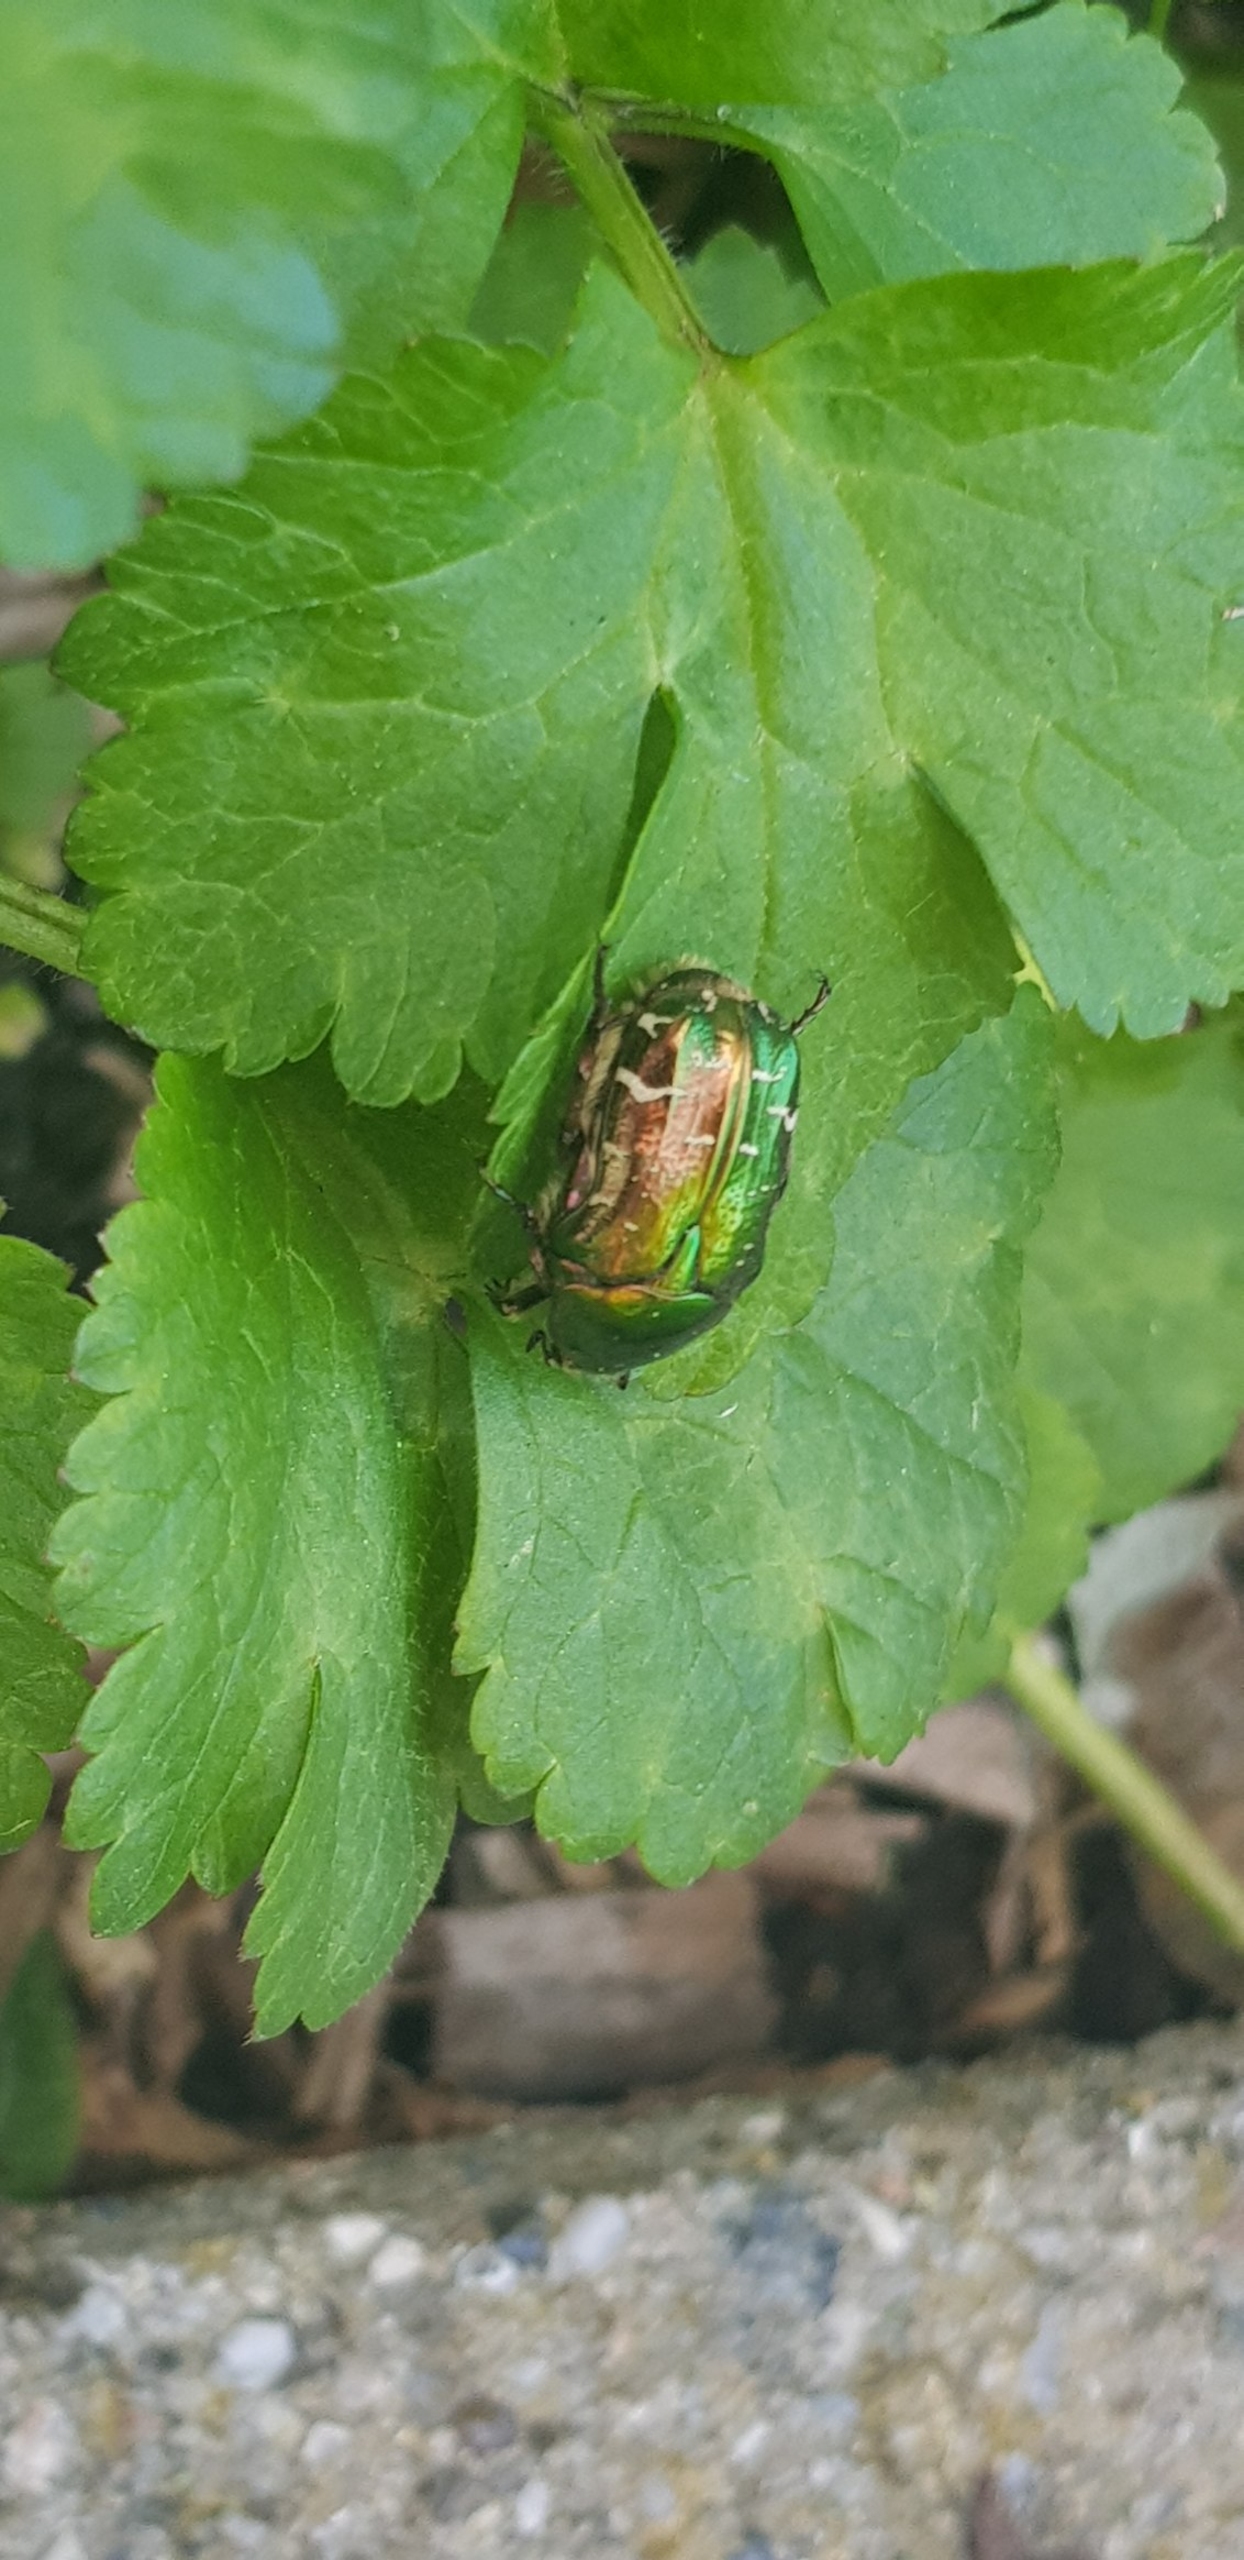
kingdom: Animalia
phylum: Arthropoda
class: Insecta
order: Coleoptera
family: Scarabaeidae
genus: Cetonia
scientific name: Cetonia aurata
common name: Grøn guldbasse
